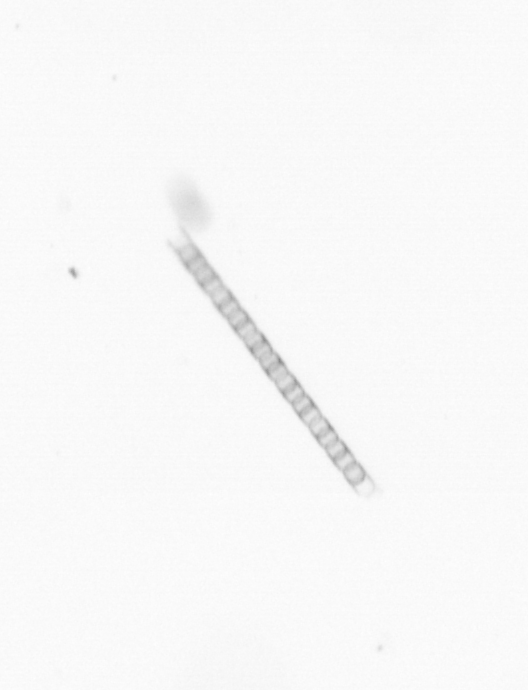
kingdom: Chromista
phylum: Ochrophyta
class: Bacillariophyceae
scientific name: Bacillariophyceae
